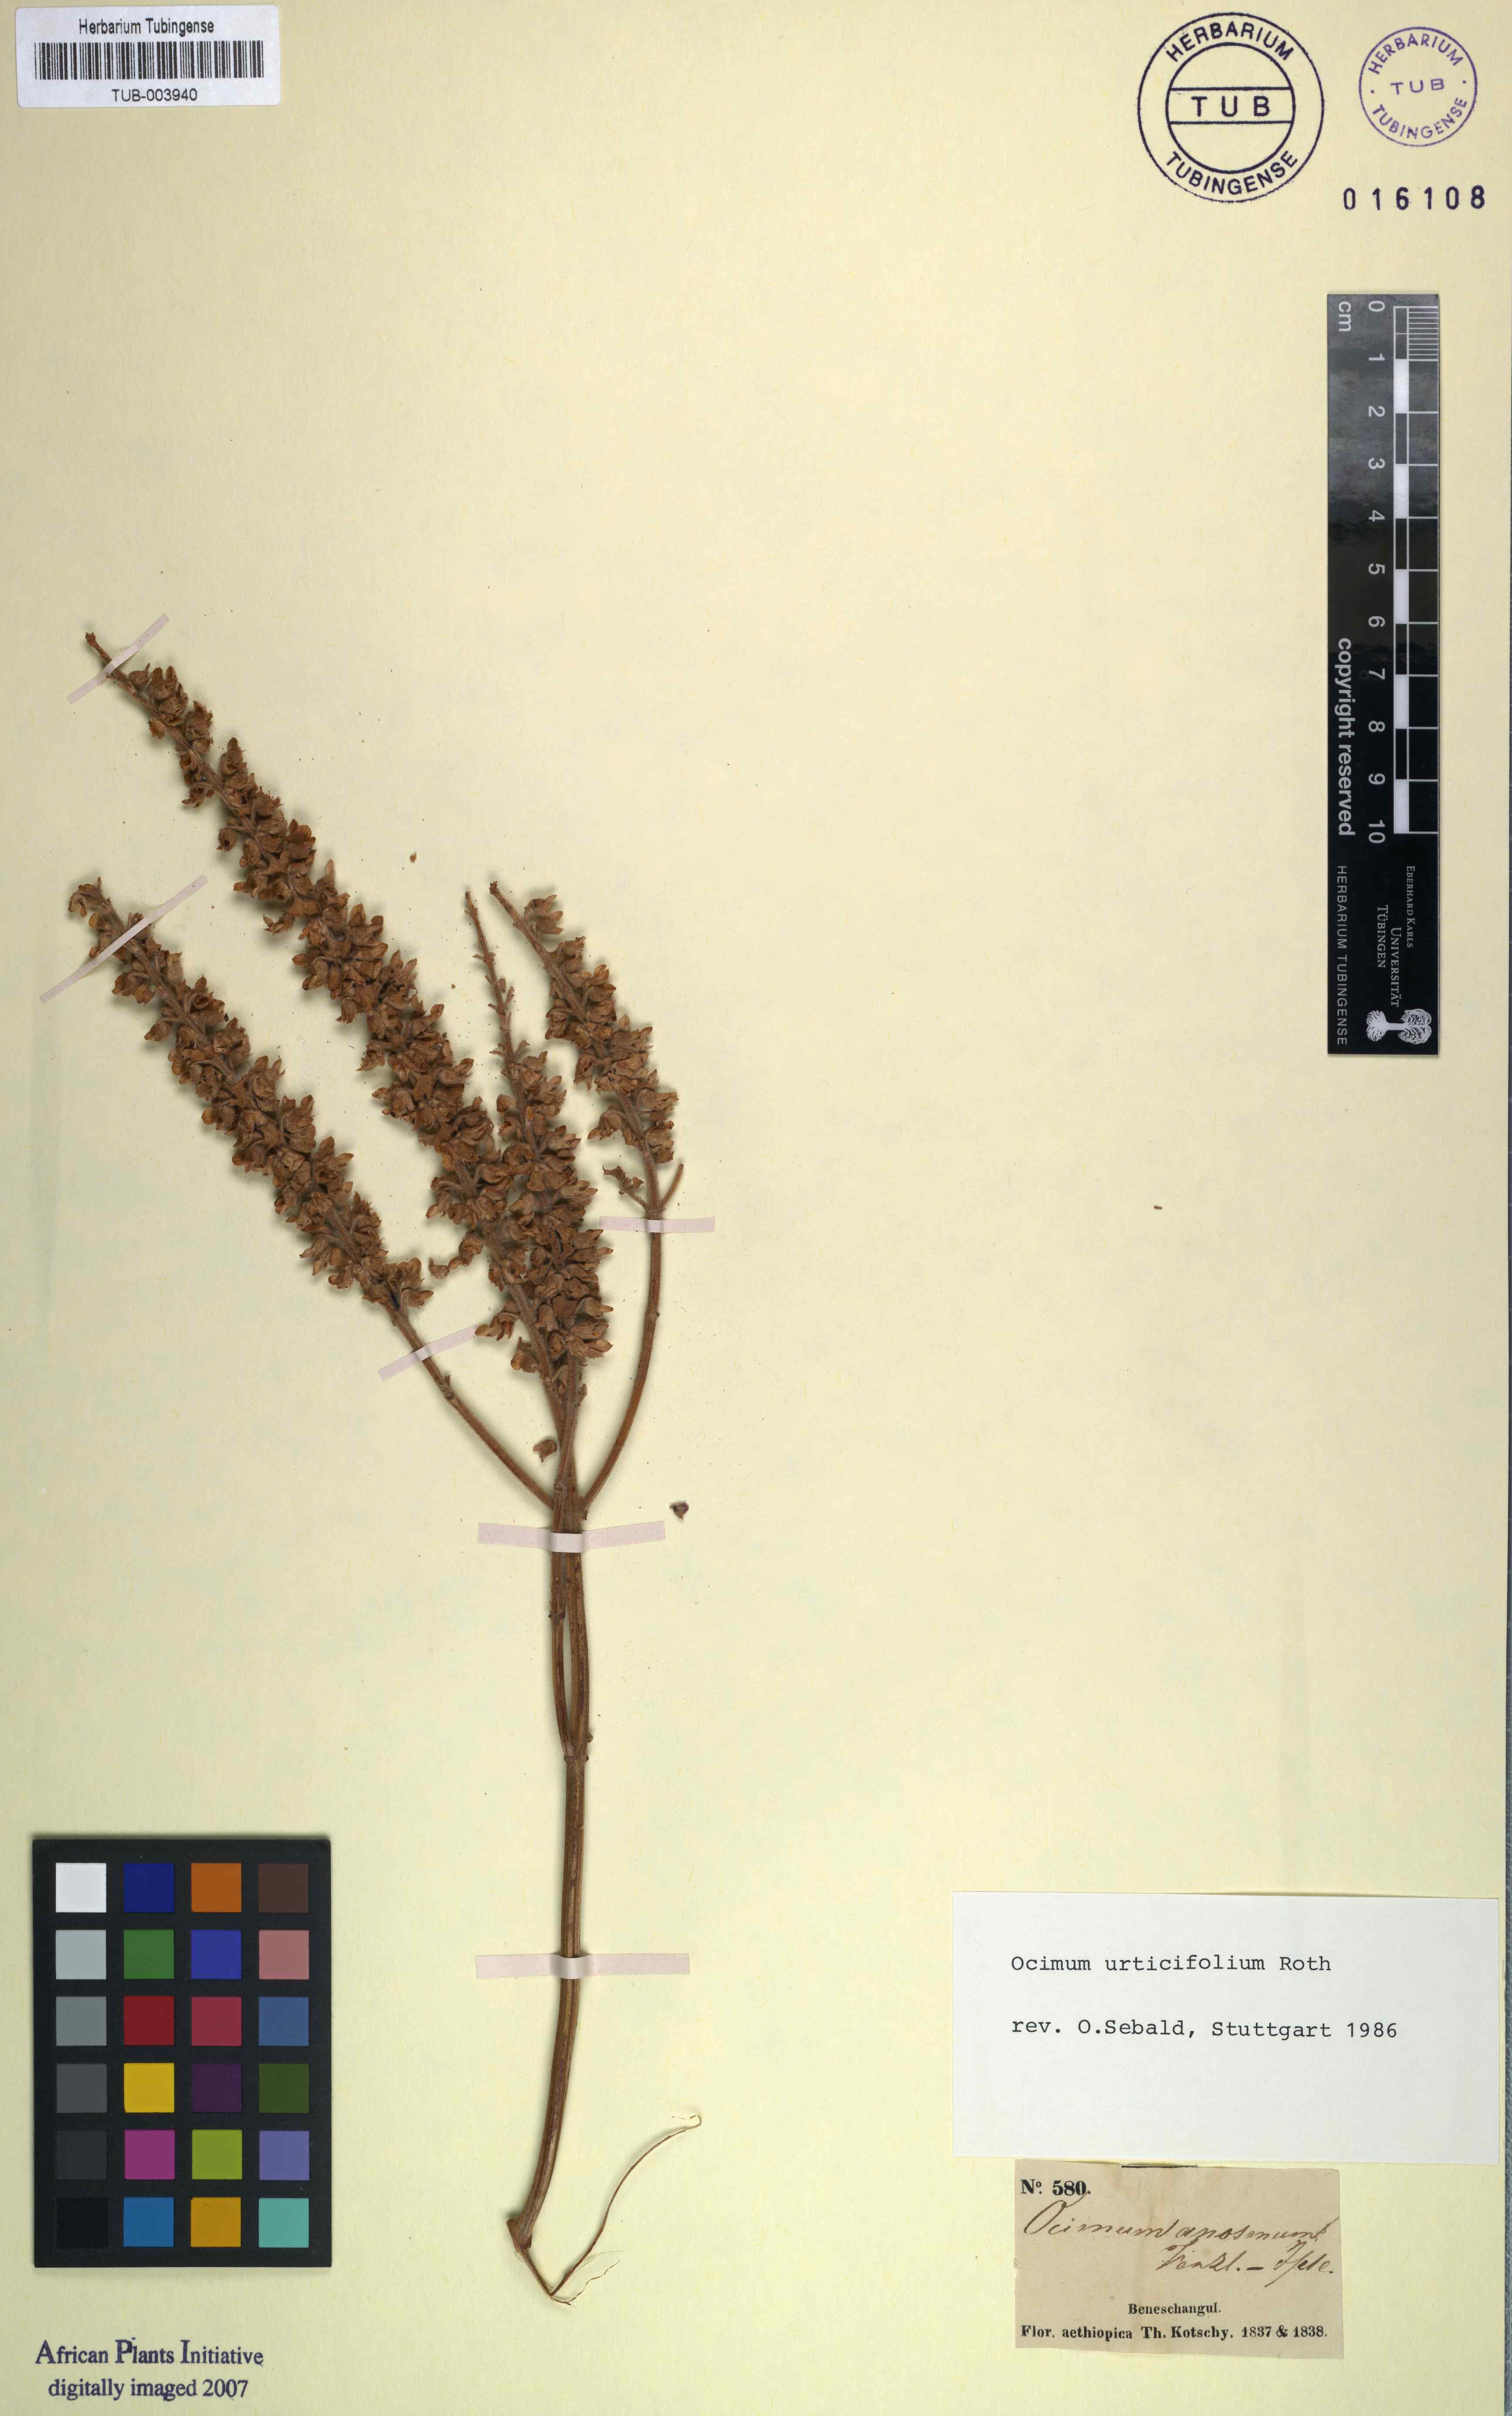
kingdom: Plantae
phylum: Tracheophyta
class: Magnoliopsida
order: Lamiales
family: Lamiaceae
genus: Ocimum
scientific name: Ocimum gratissimum
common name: African basil
